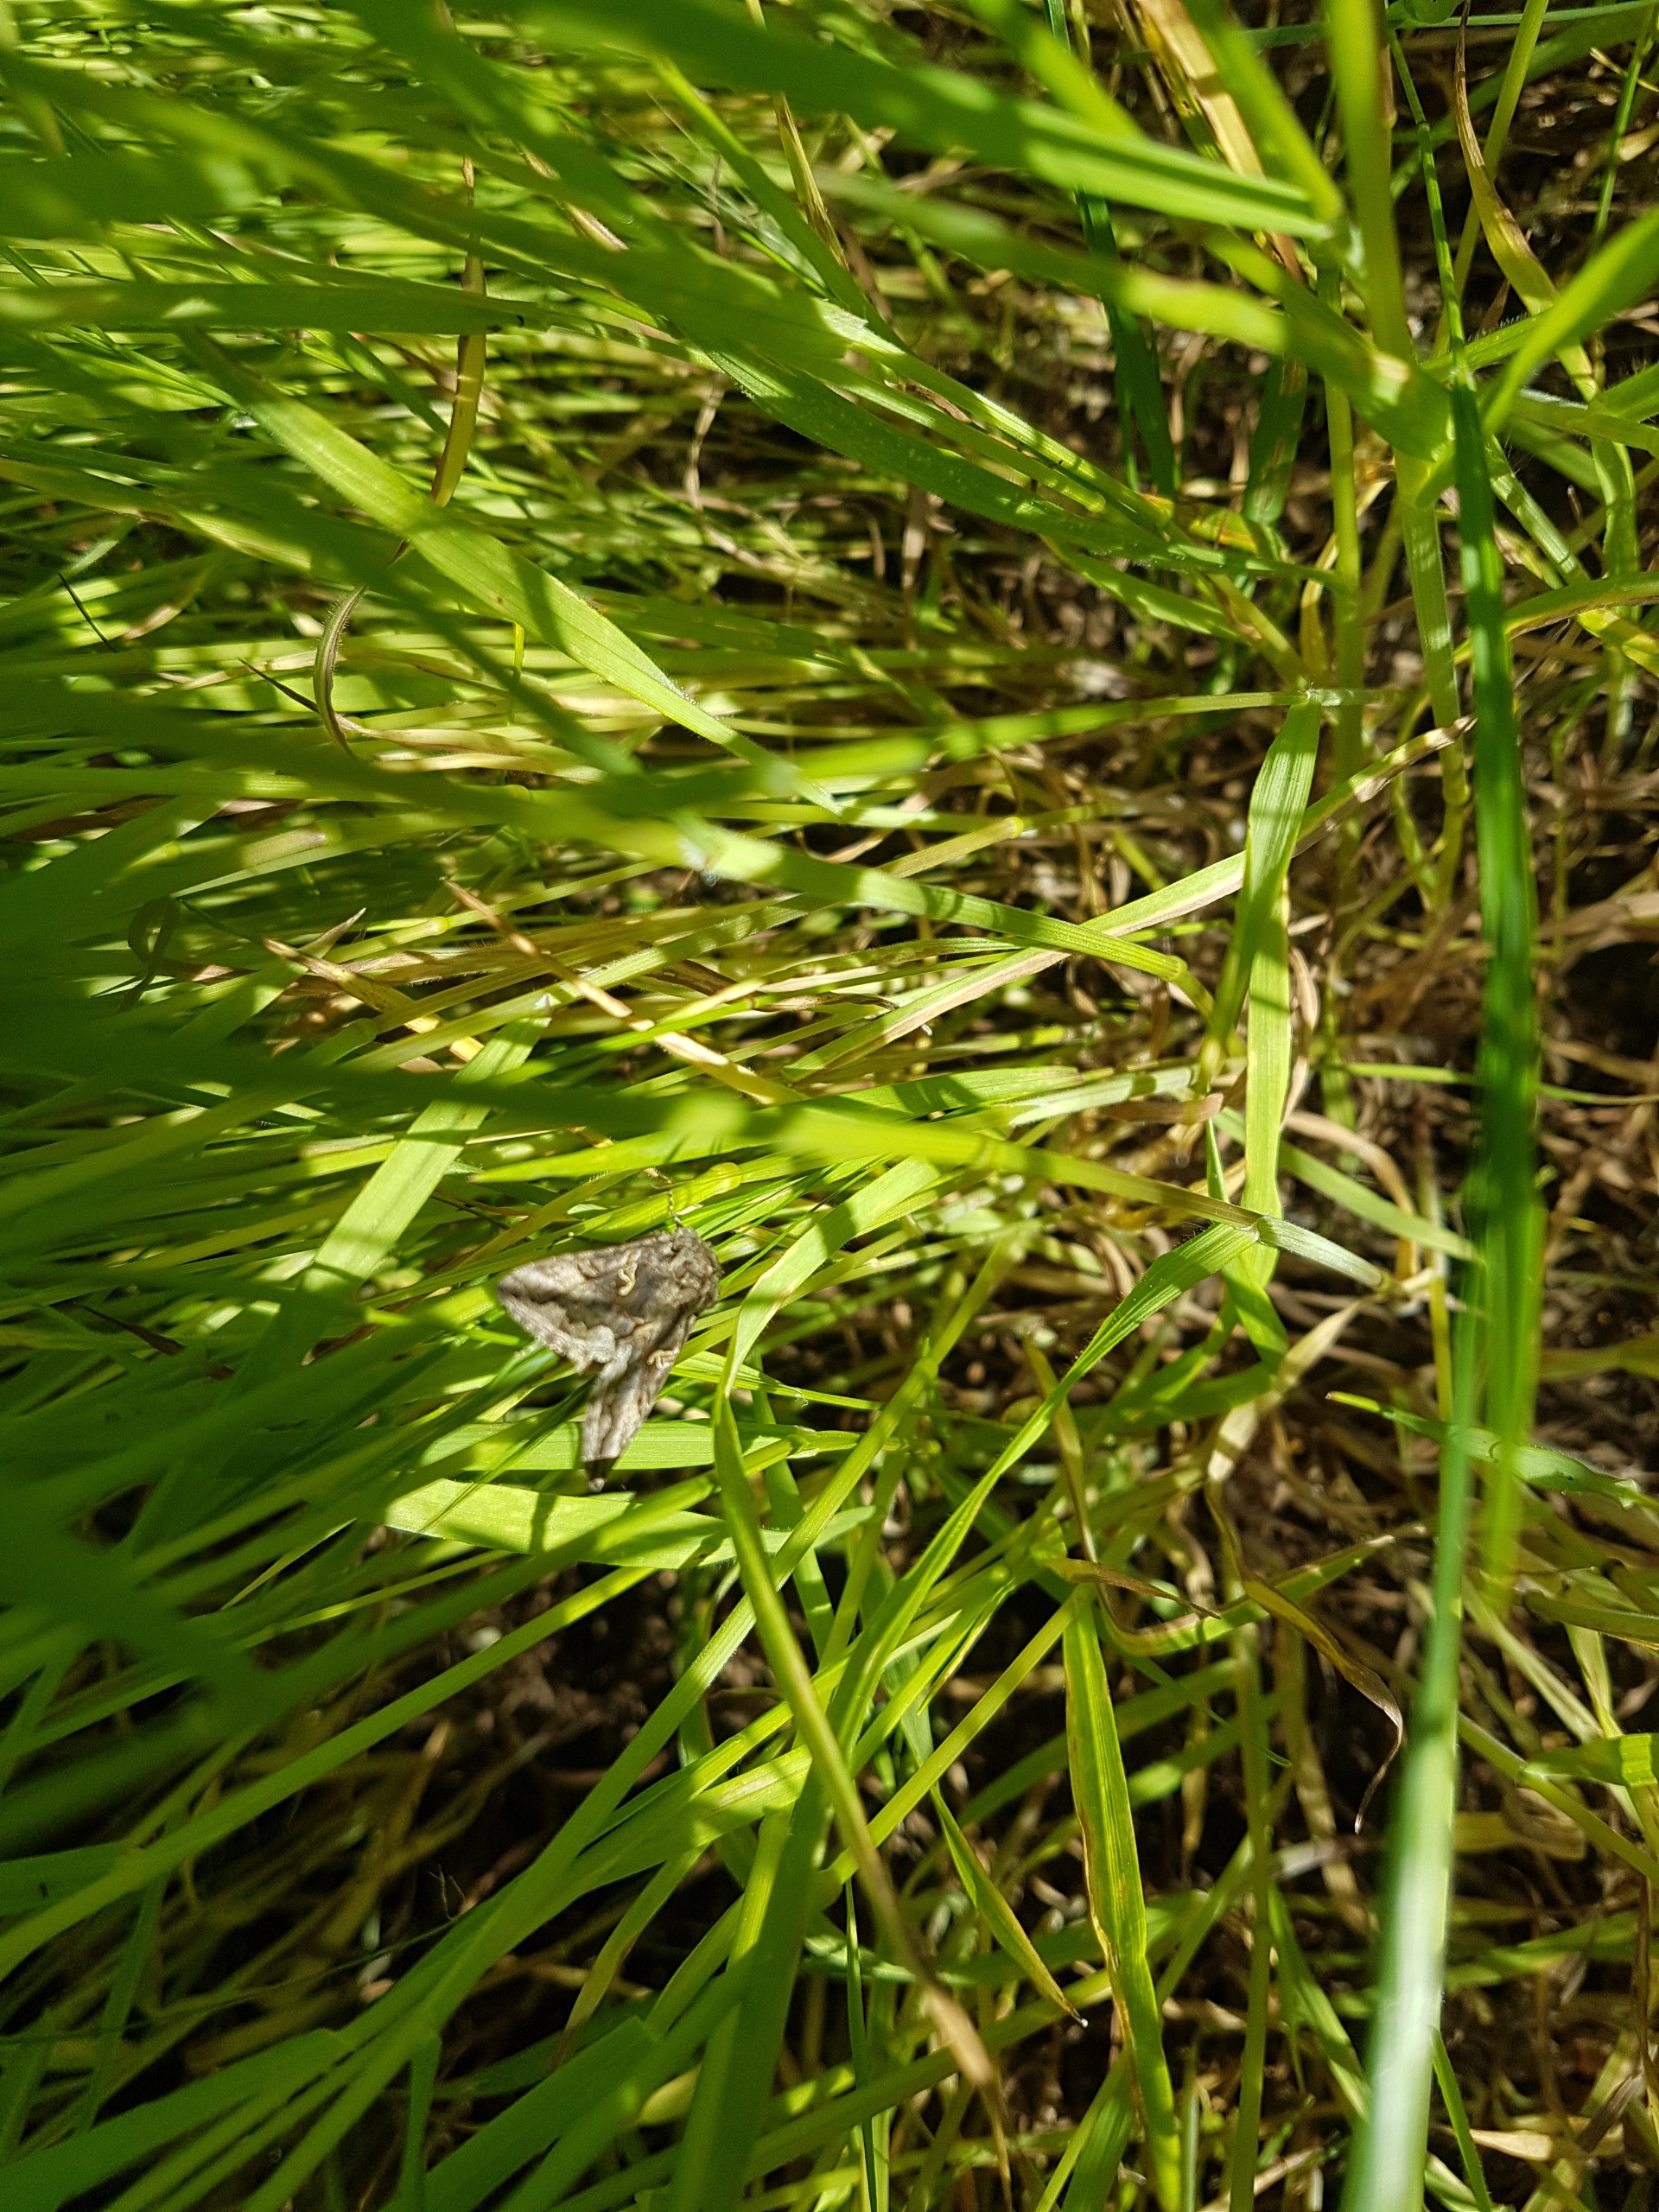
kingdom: Animalia
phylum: Arthropoda
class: Insecta
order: Lepidoptera
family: Noctuidae
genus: Autographa
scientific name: Autographa gamma
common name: Gammaugle
